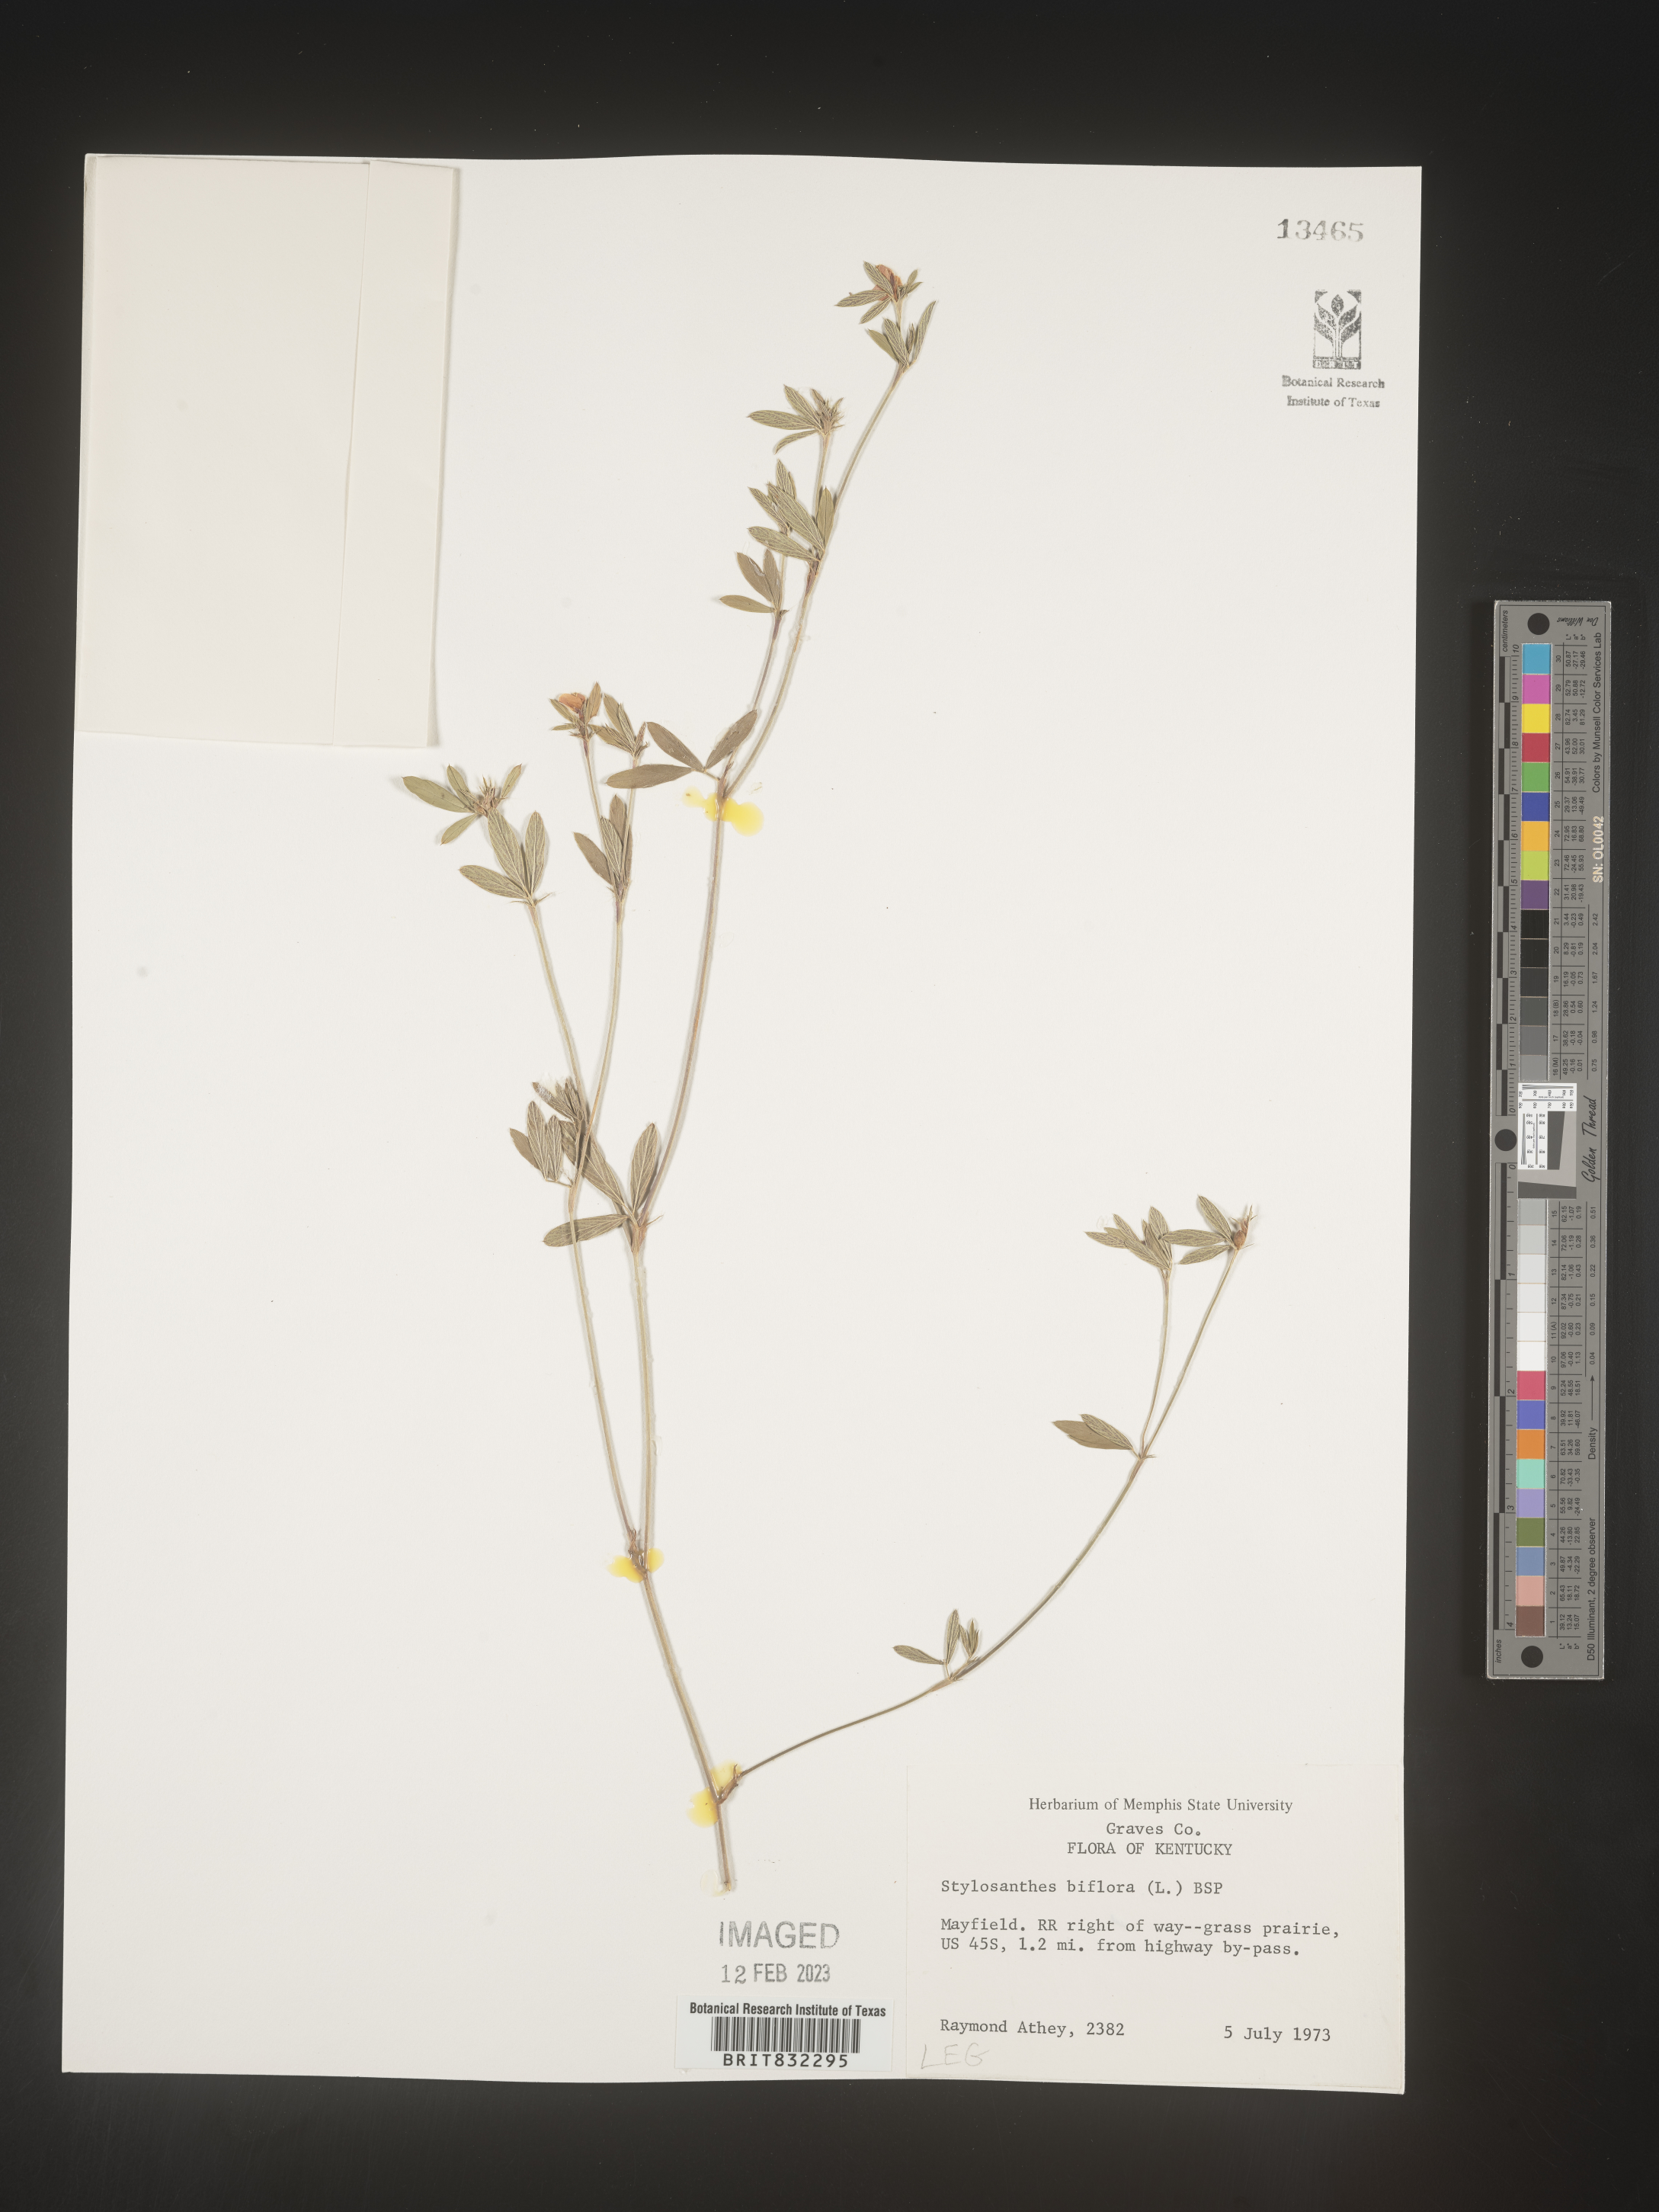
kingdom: Plantae
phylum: Tracheophyta
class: Magnoliopsida
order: Fabales
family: Fabaceae
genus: Stylosanthes
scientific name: Stylosanthes biflora
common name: Two-flower pencil-flower
